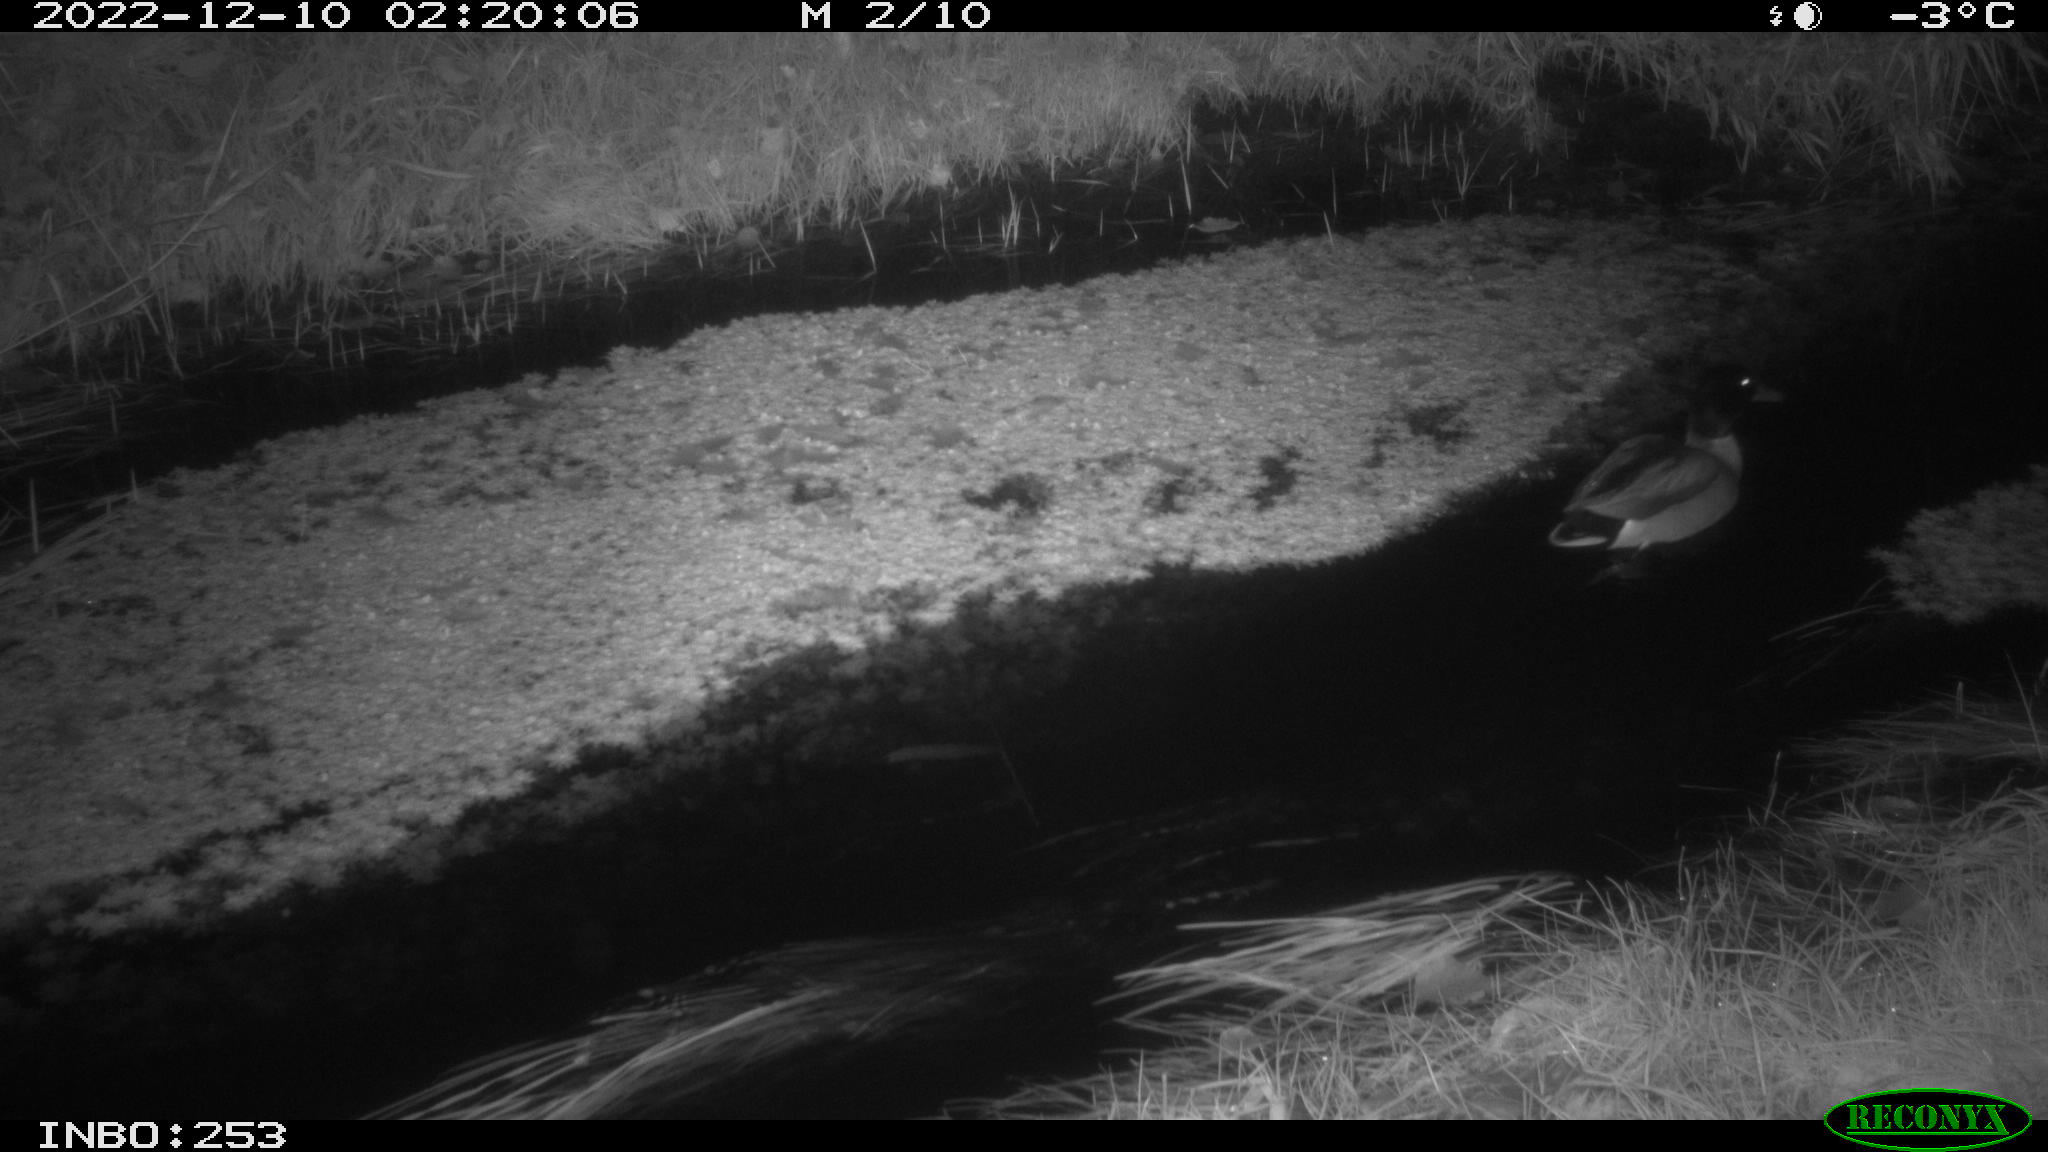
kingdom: Animalia
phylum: Chordata
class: Aves
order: Anseriformes
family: Anatidae
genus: Anas
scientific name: Anas platyrhynchos
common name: Mallard
